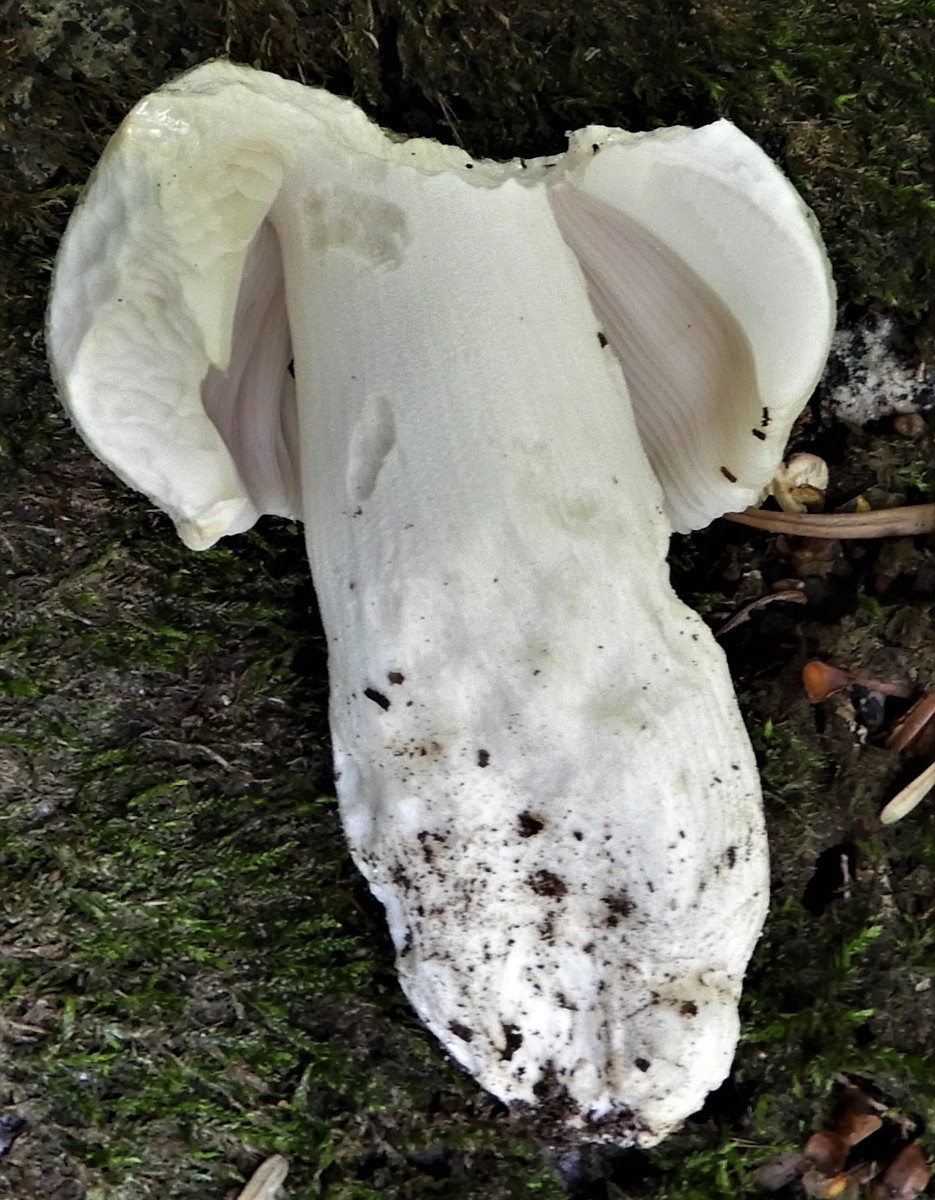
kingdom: Fungi
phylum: Basidiomycota
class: Agaricomycetes
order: Russulales
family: Russulaceae
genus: Russula
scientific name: Russula virescens
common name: spanskgrøn skørhat
